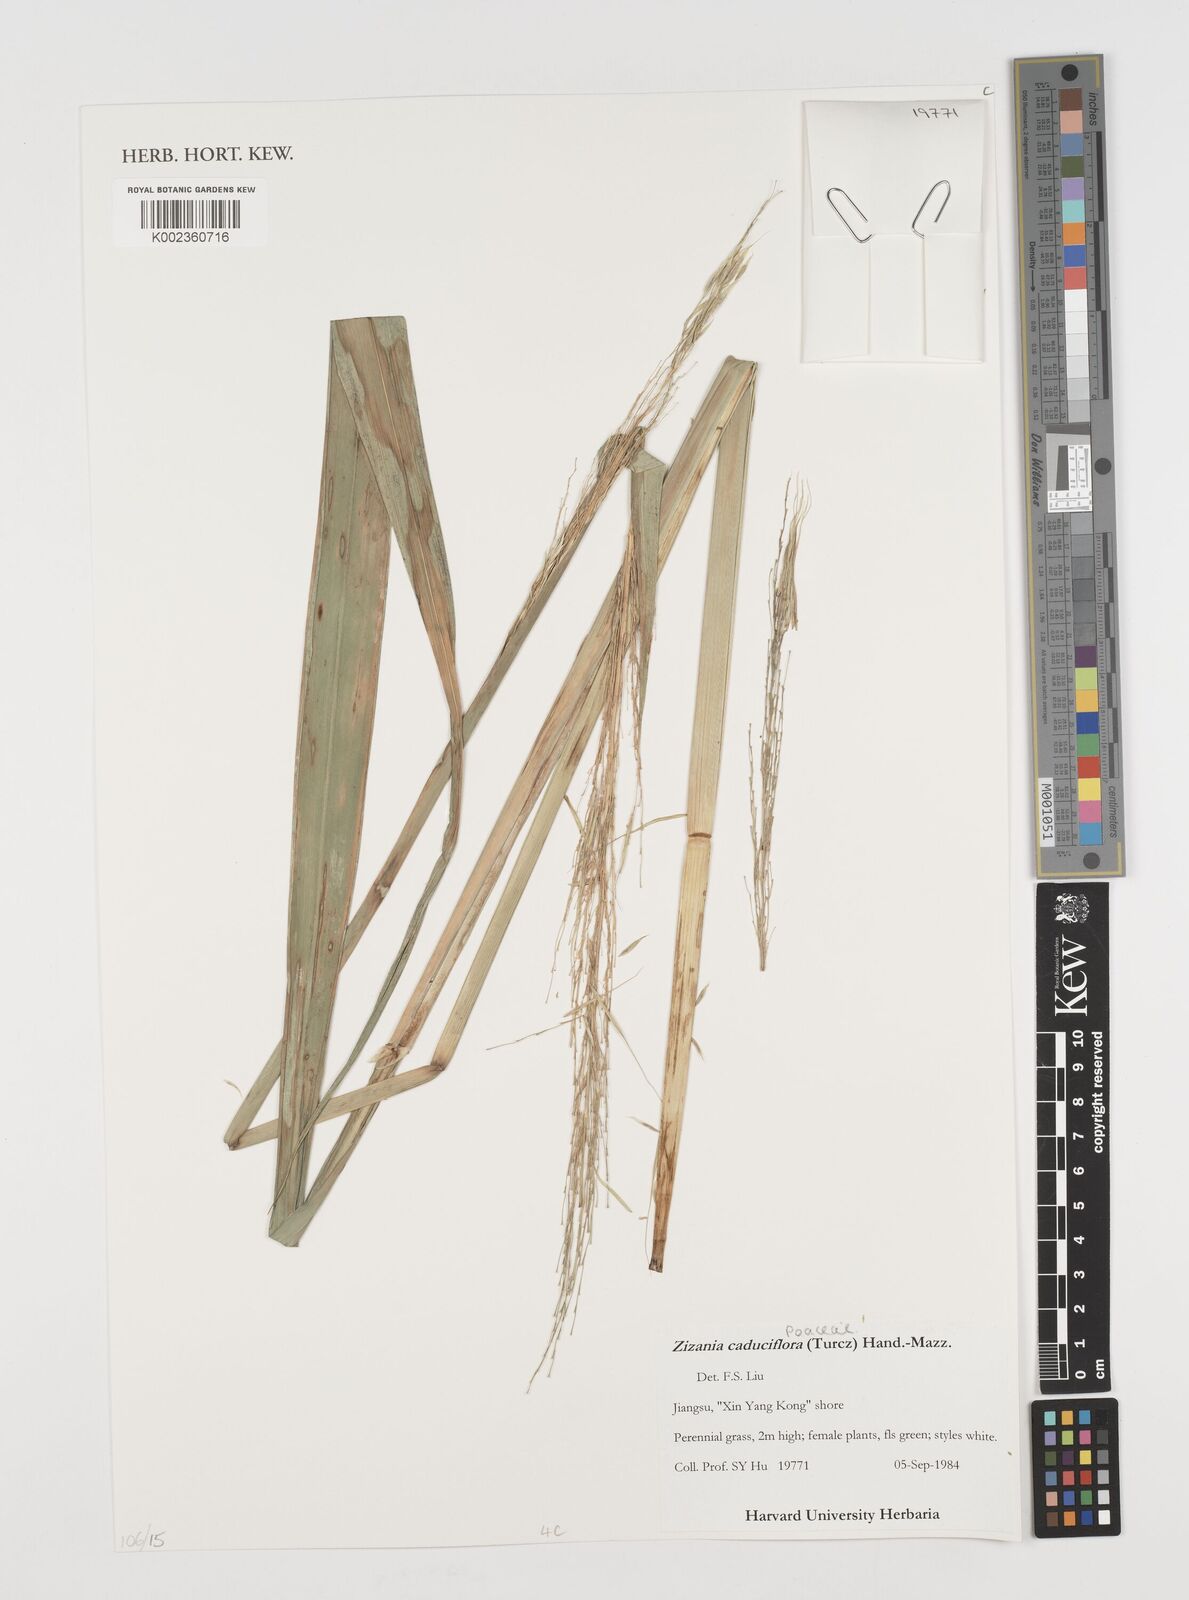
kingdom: Plantae
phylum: Tracheophyta
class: Liliopsida
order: Poales
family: Poaceae
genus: Zizania
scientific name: Zizania latifolia
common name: Manchurian wildrice
